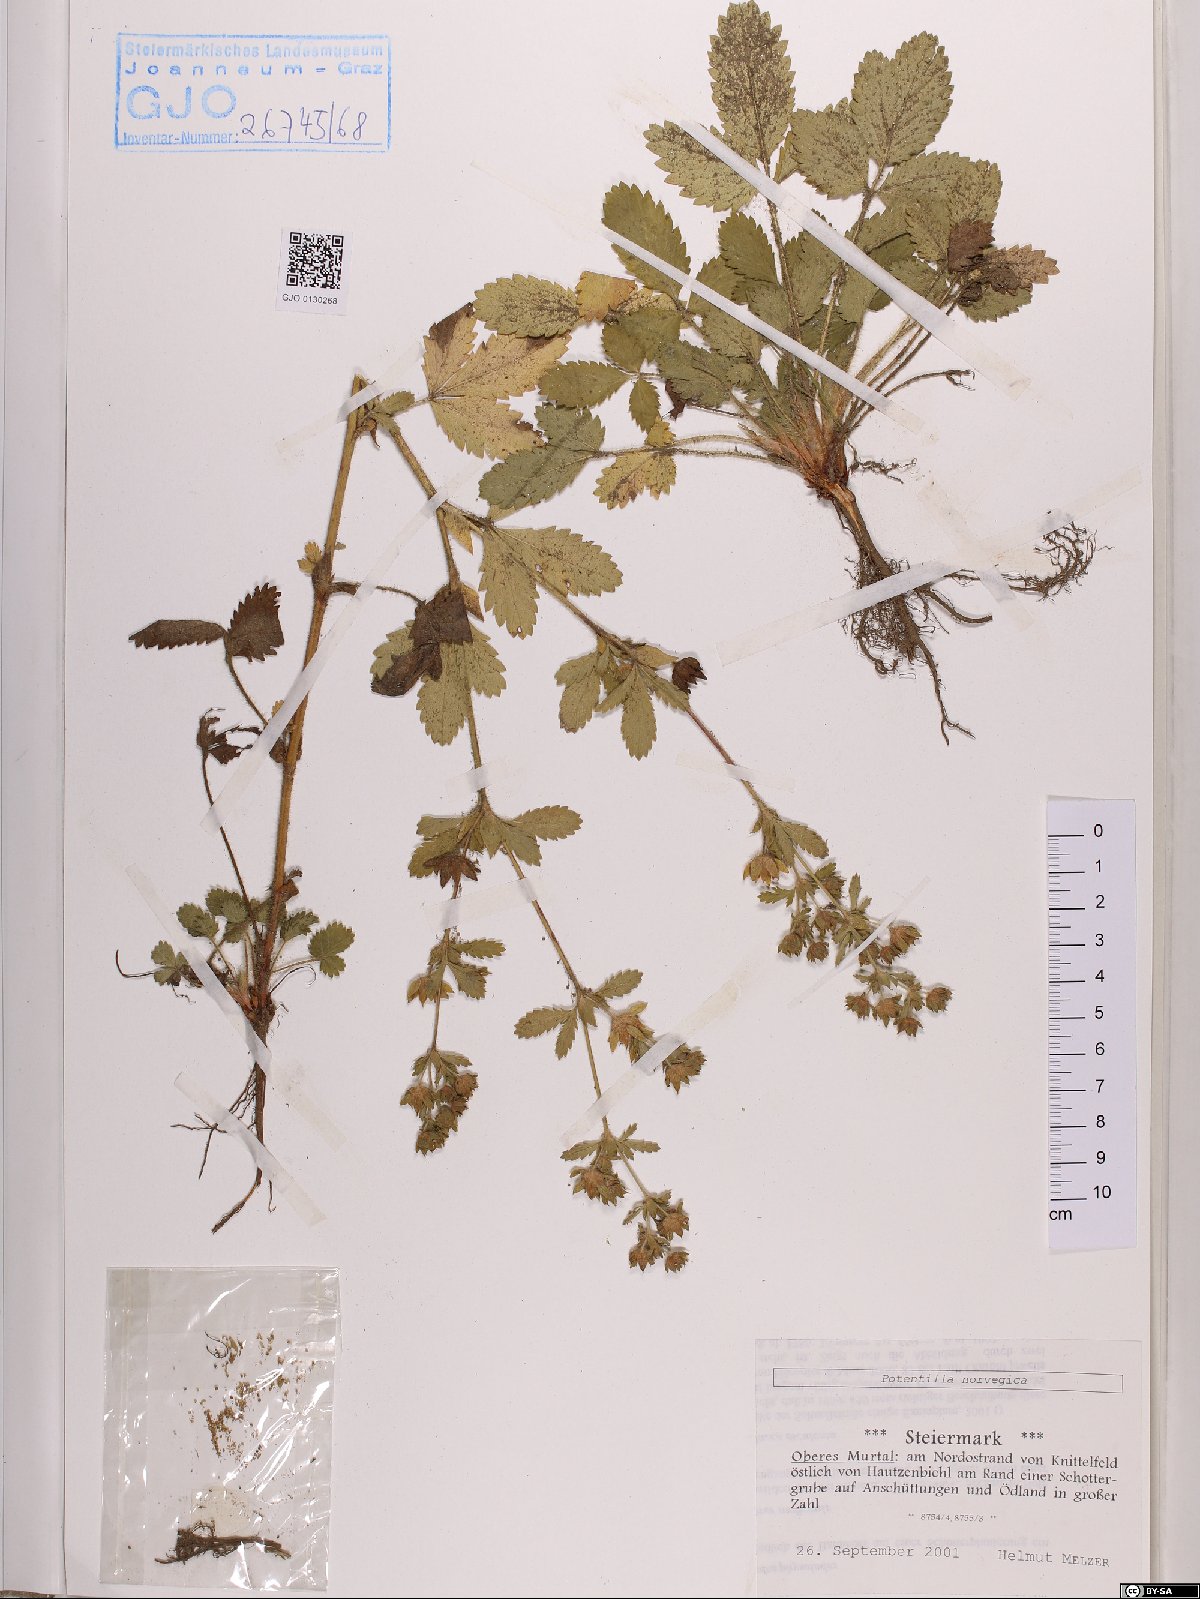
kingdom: Plantae
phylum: Tracheophyta
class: Magnoliopsida
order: Rosales
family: Rosaceae
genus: Potentilla
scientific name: Potentilla norvegica
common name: Ternate-leaved cinquefoil
